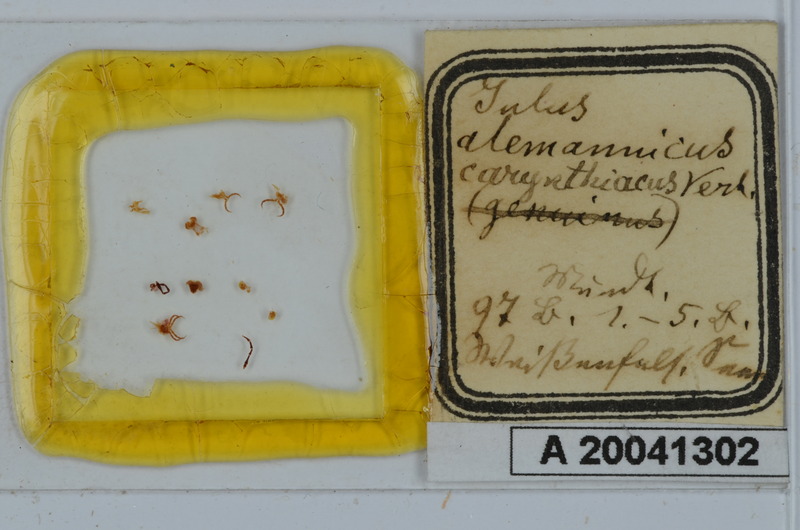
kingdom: Animalia
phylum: Arthropoda
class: Diplopoda
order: Julida
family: Julidae
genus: Leptoiulus
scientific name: Leptoiulus alemannicus
